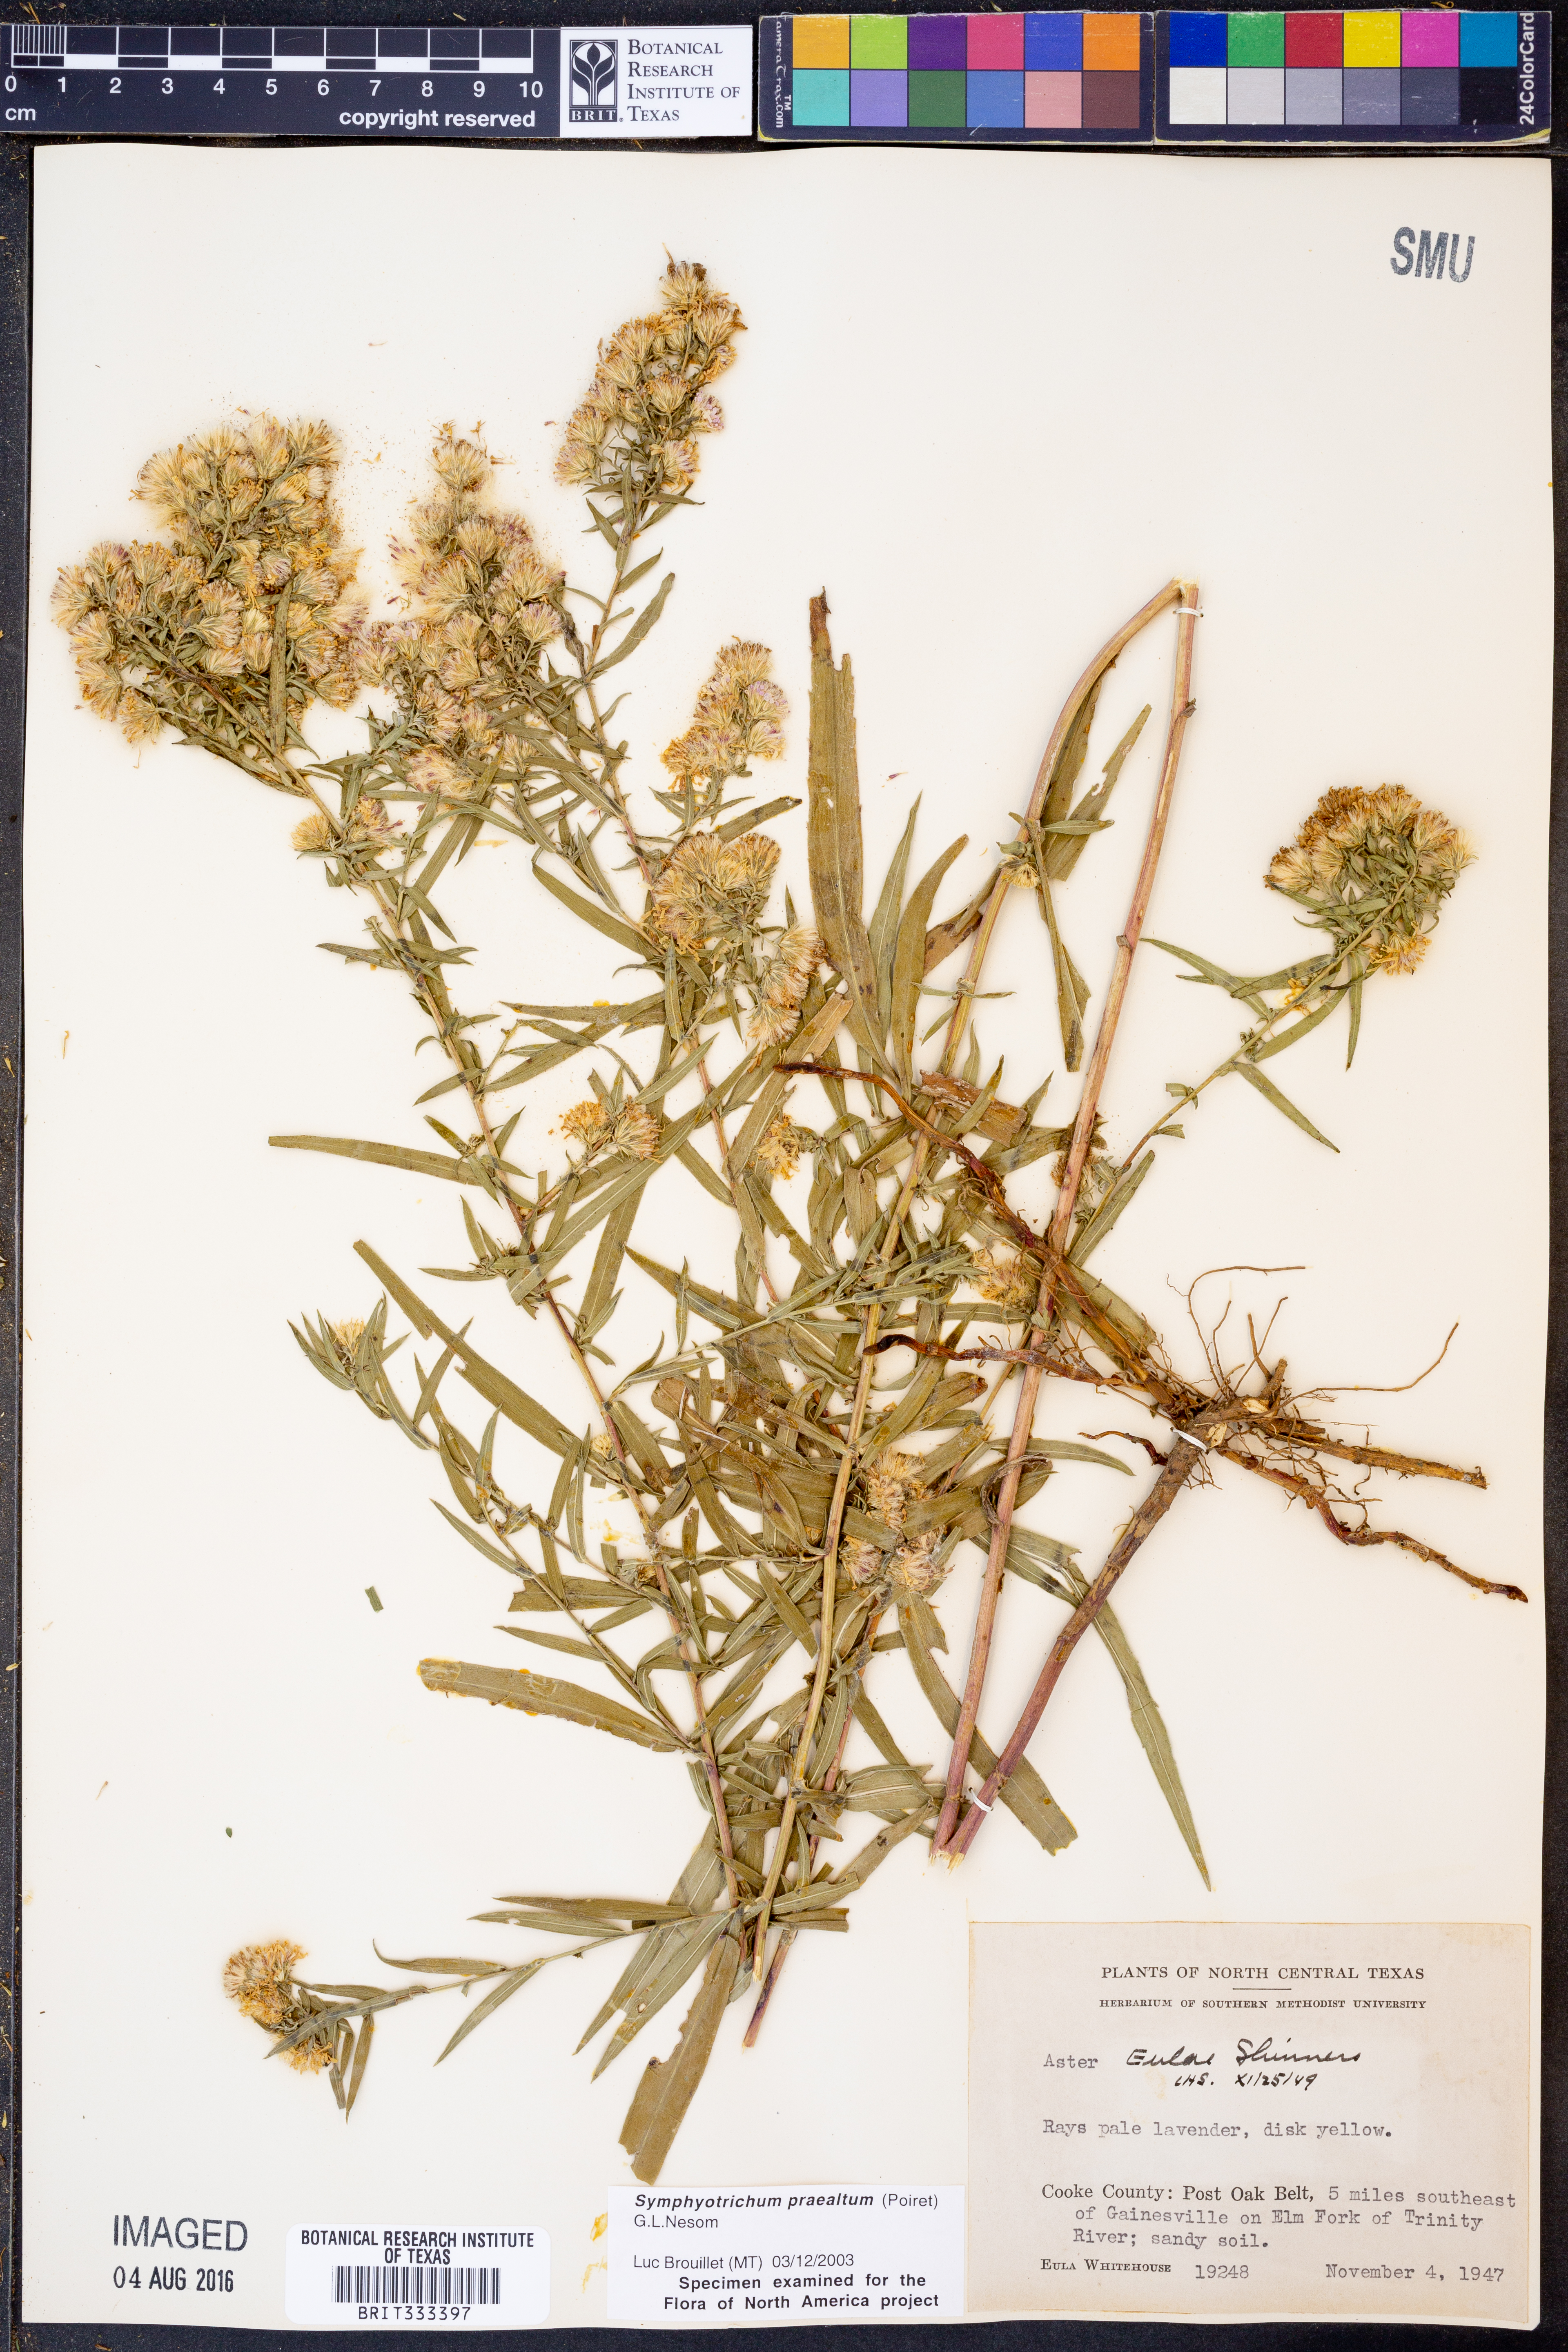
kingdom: Plantae
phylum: Tracheophyta
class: Magnoliopsida
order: Asterales
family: Asteraceae
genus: Symphyotrichum
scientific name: Symphyotrichum praealtum
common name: Willow aster
